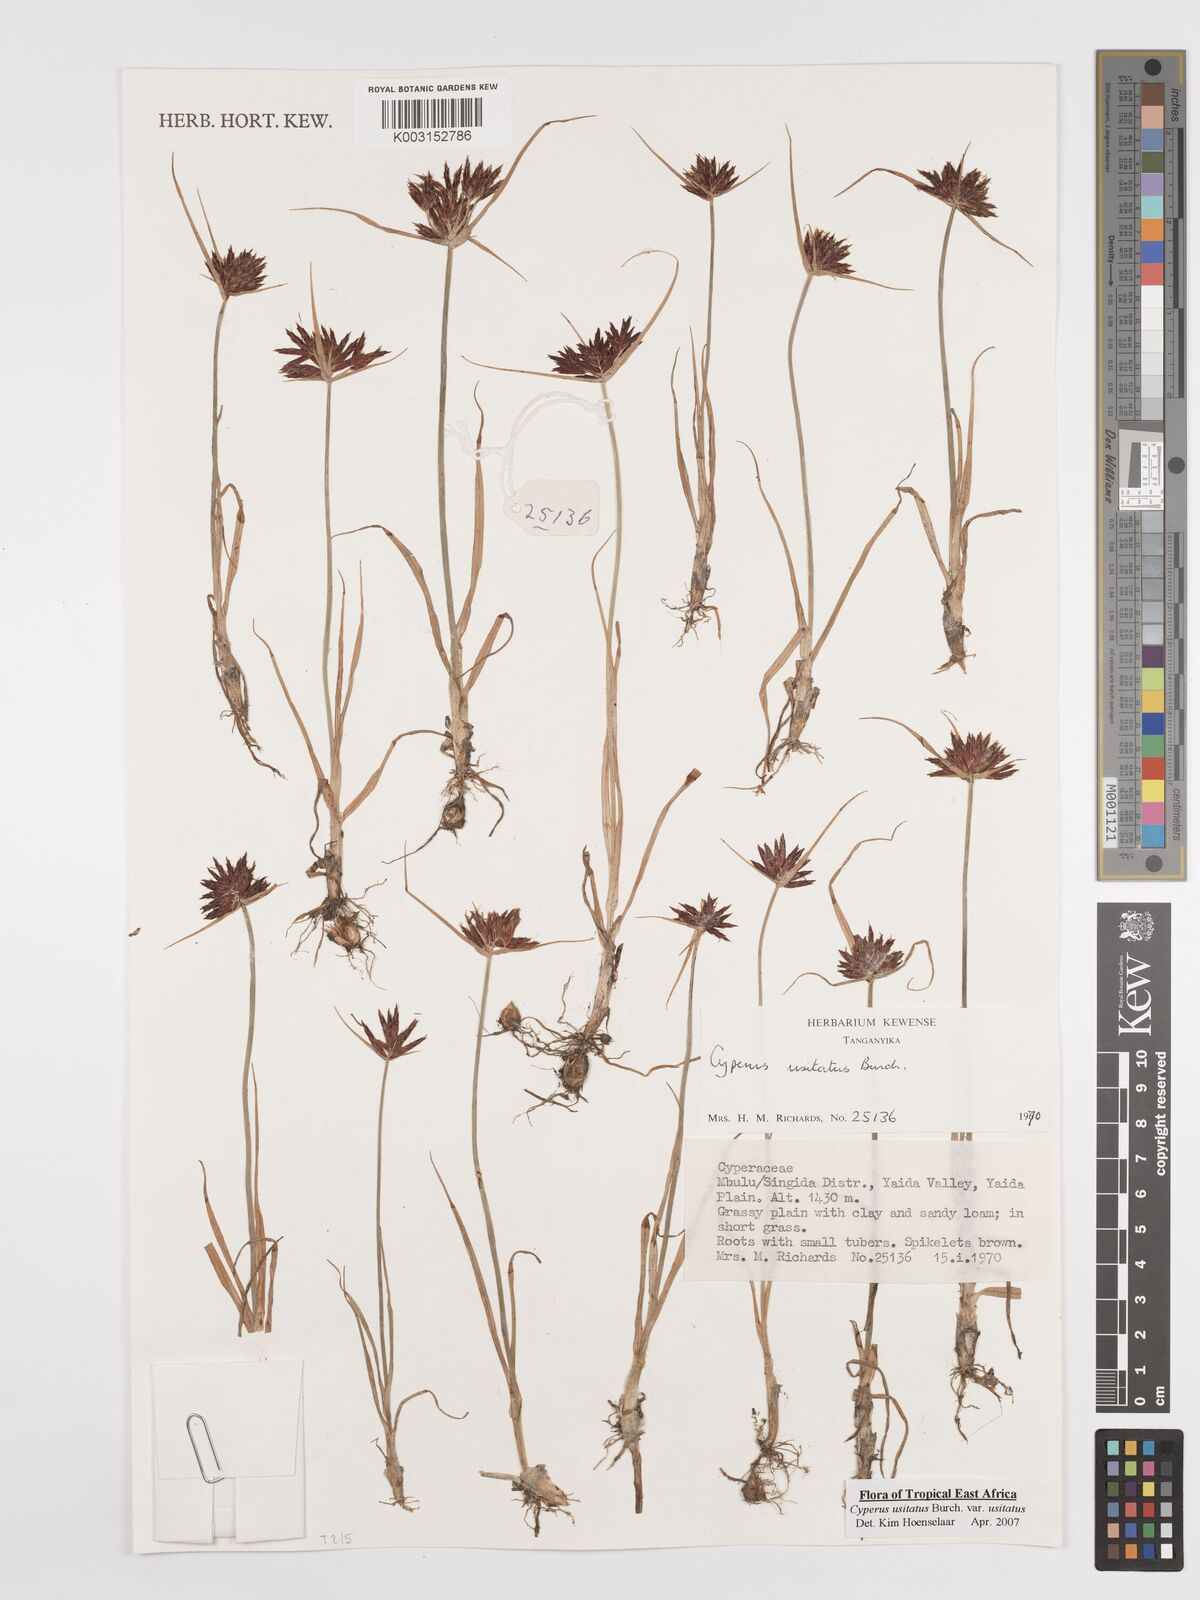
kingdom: Plantae
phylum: Tracheophyta
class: Liliopsida
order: Poales
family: Cyperaceae
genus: Cyperus
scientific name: Cyperus usitatus
